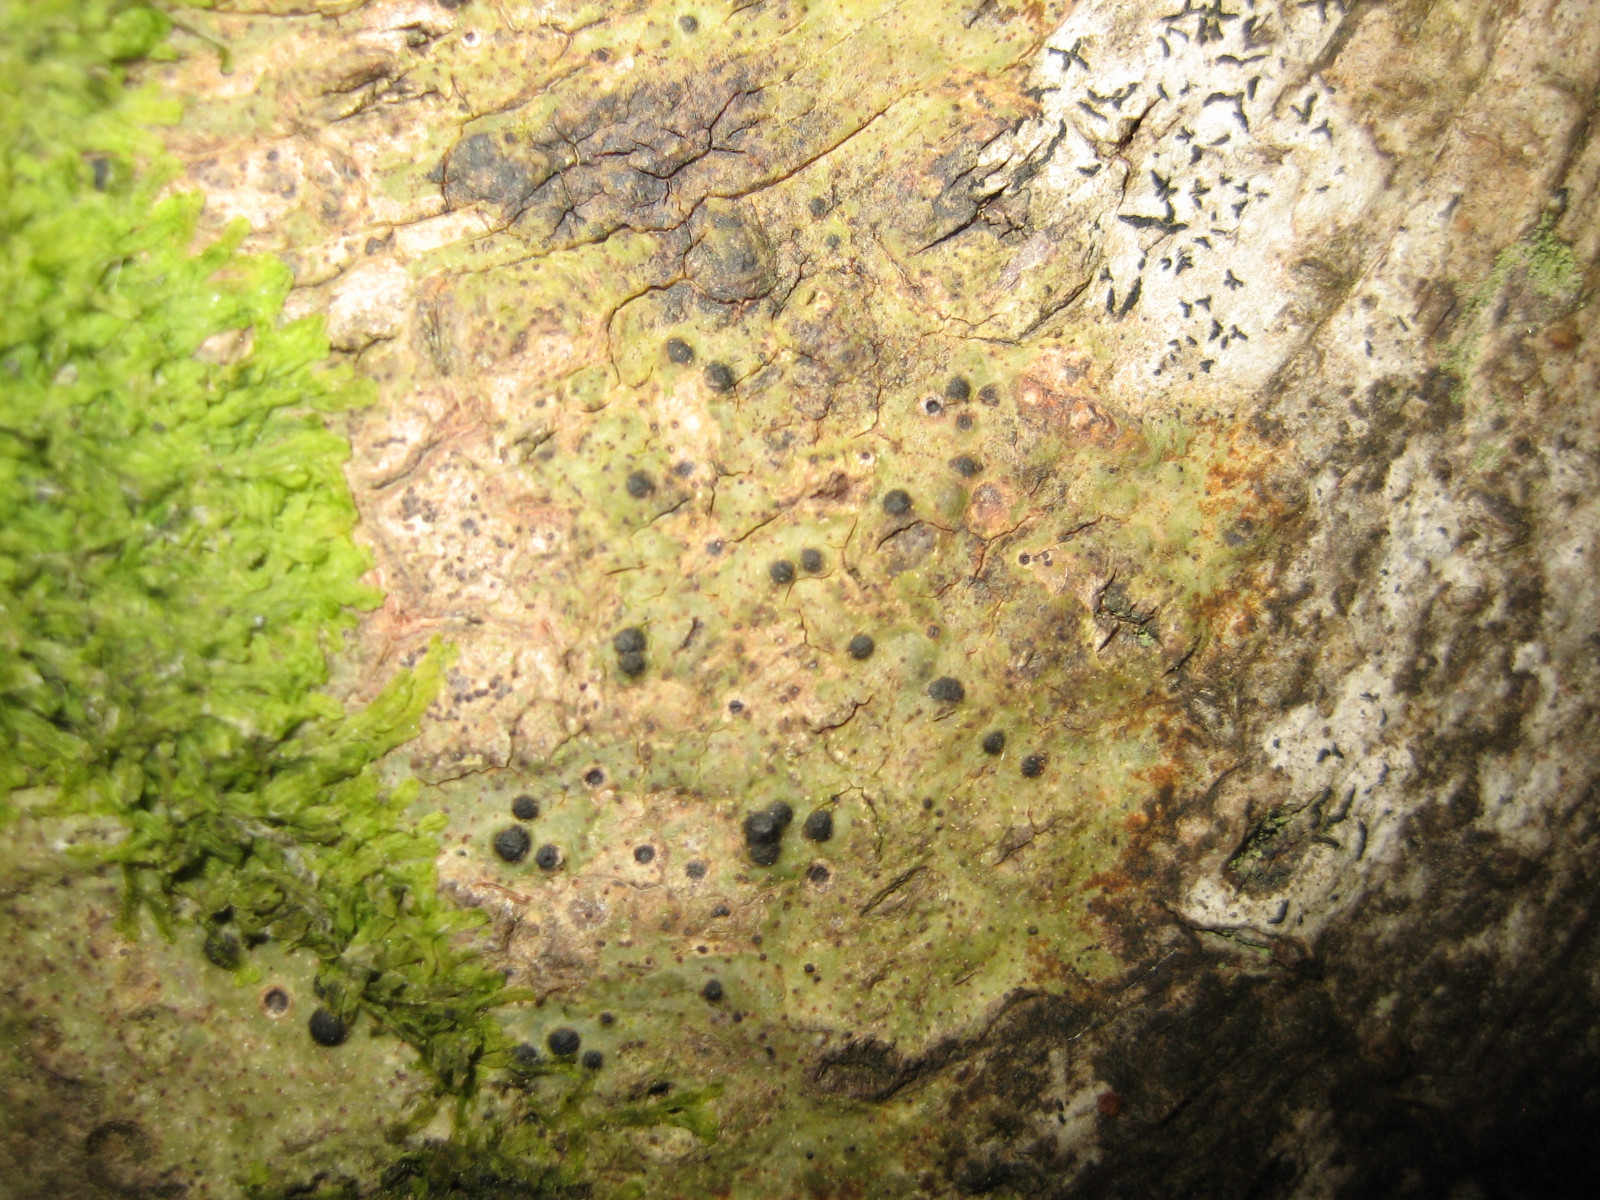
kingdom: Fungi
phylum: Ascomycota
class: Eurotiomycetes
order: Pyrenulales
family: Pyrenulaceae
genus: Pyrenula
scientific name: Pyrenula nitida
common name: glinsende kernelav
